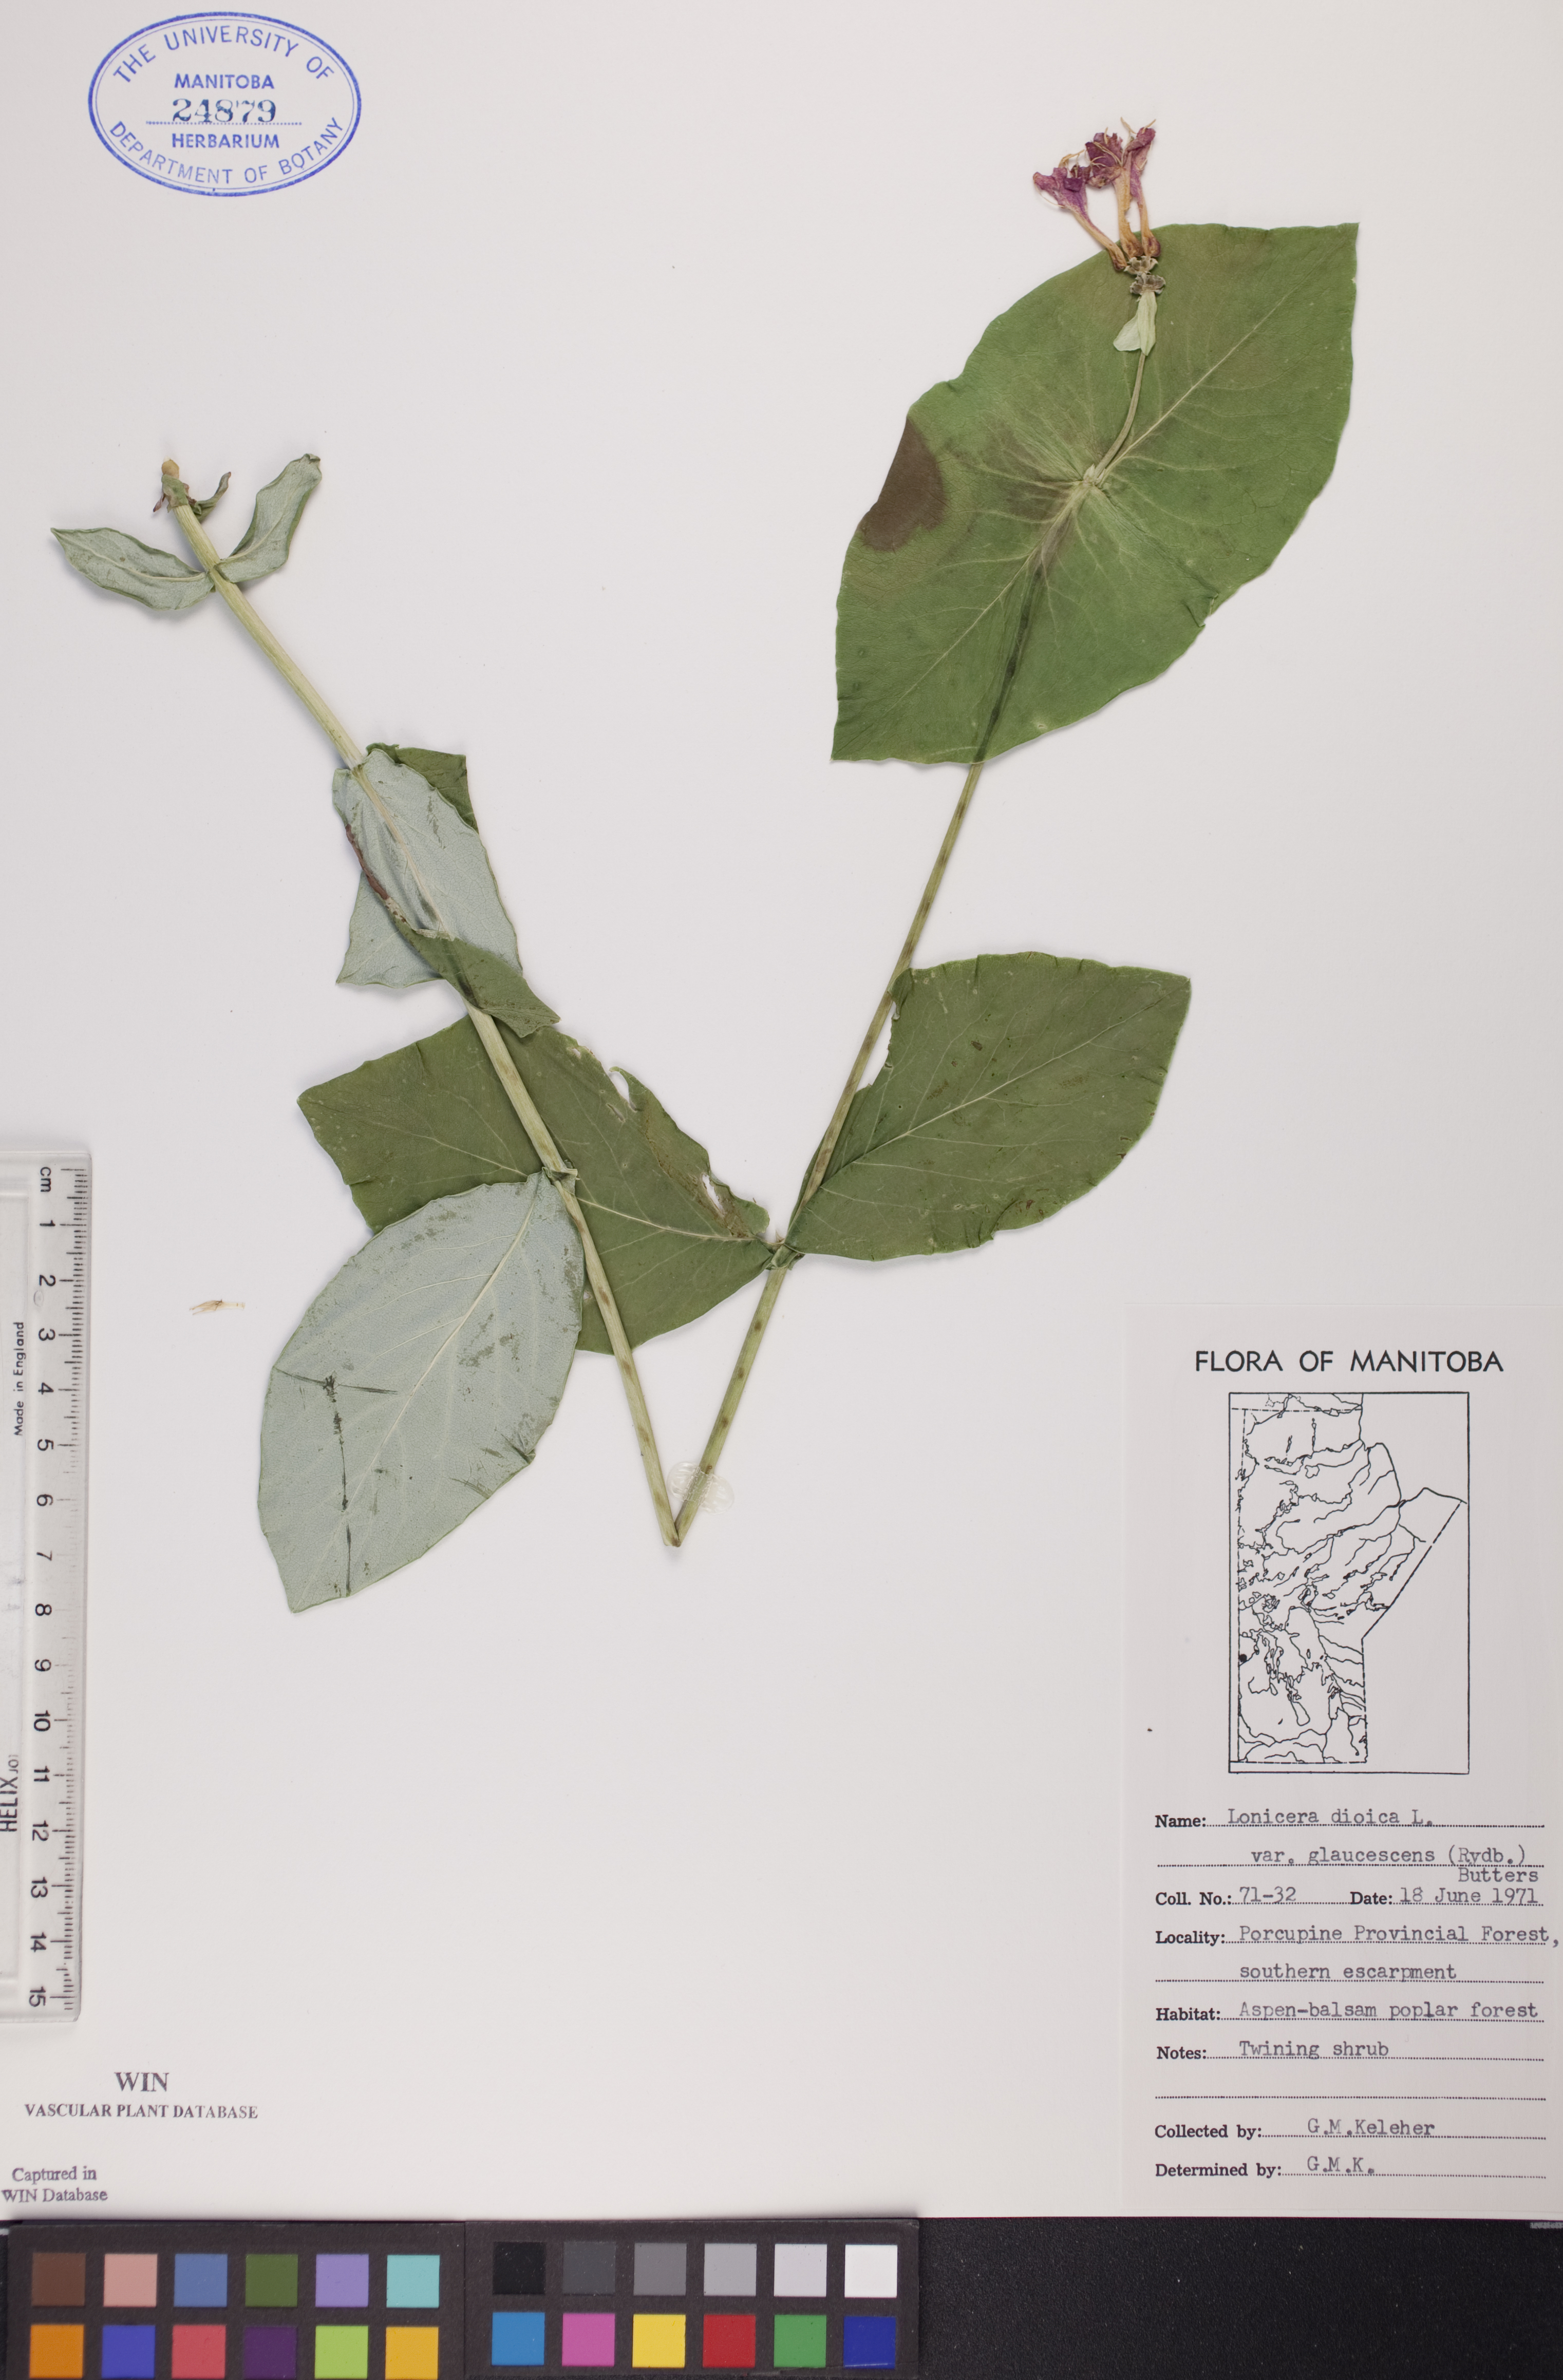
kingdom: Plantae
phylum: Tracheophyta
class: Magnoliopsida
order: Dipsacales
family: Caprifoliaceae
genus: Lonicera
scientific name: Lonicera dioica
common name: Limber honeysuckle
